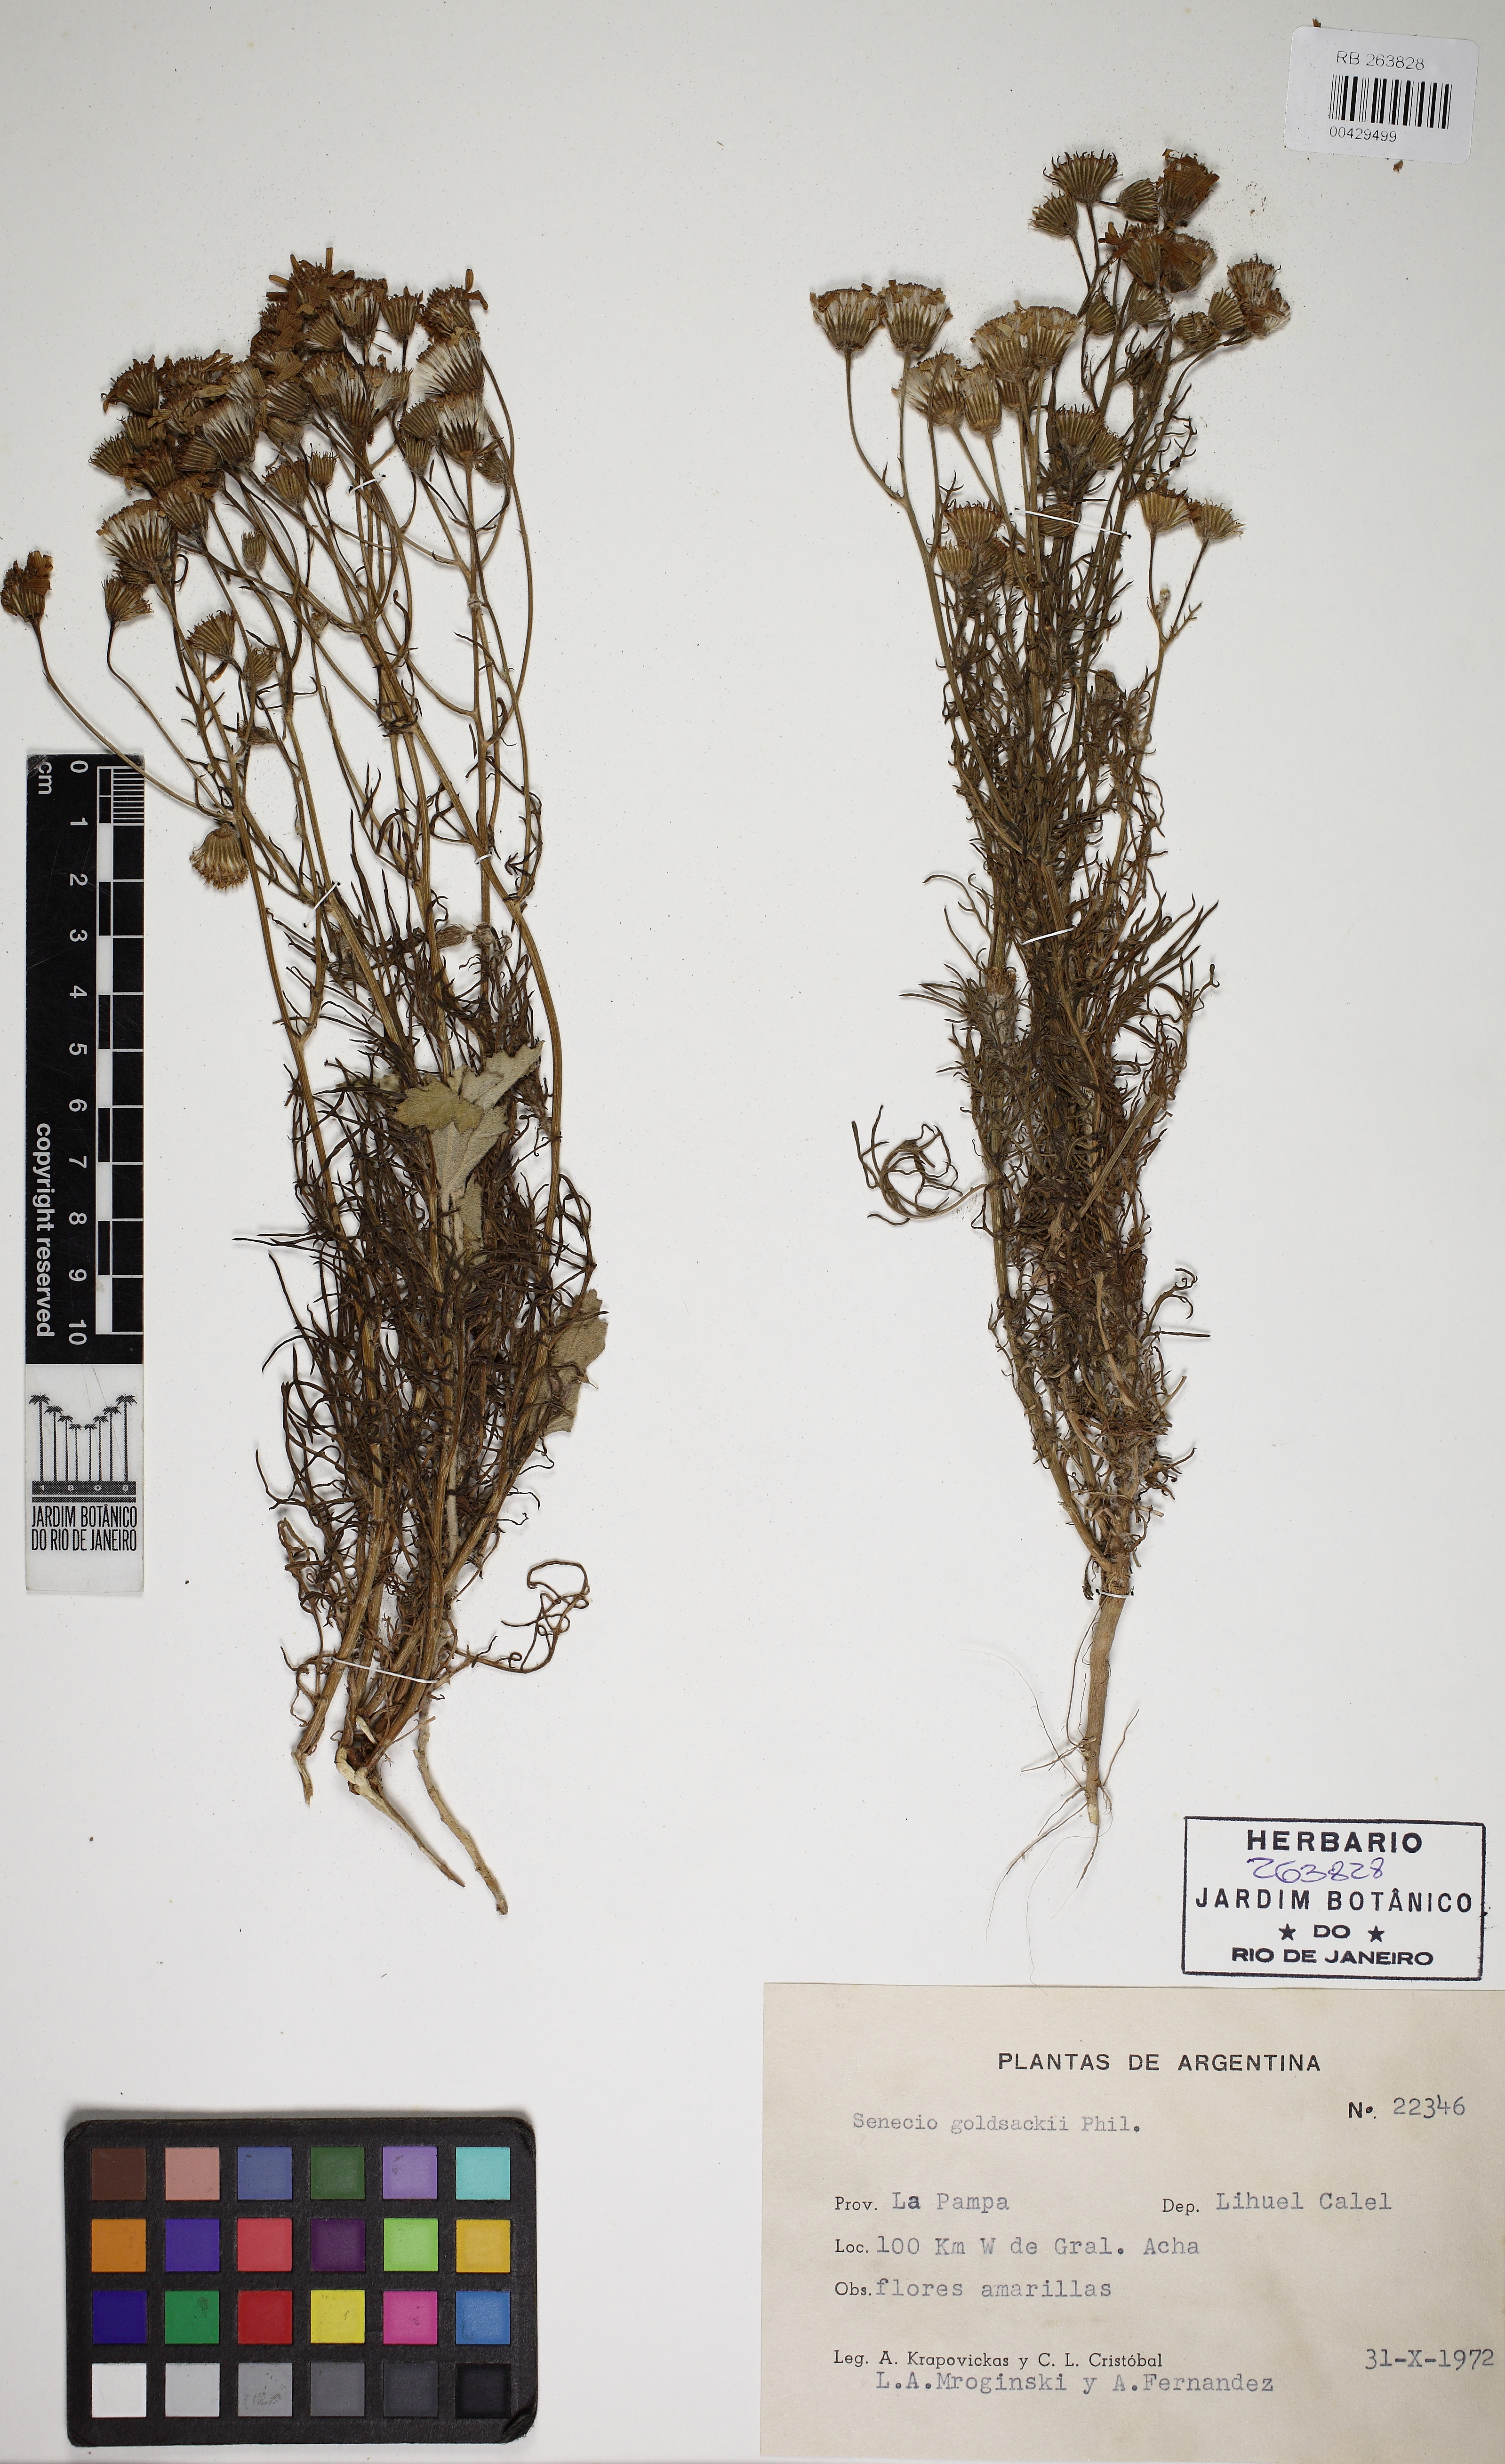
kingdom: Plantae
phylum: Tracheophyta
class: Magnoliopsida
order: Asterales
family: Asteraceae
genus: Senecio
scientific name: Senecio goldsackii
